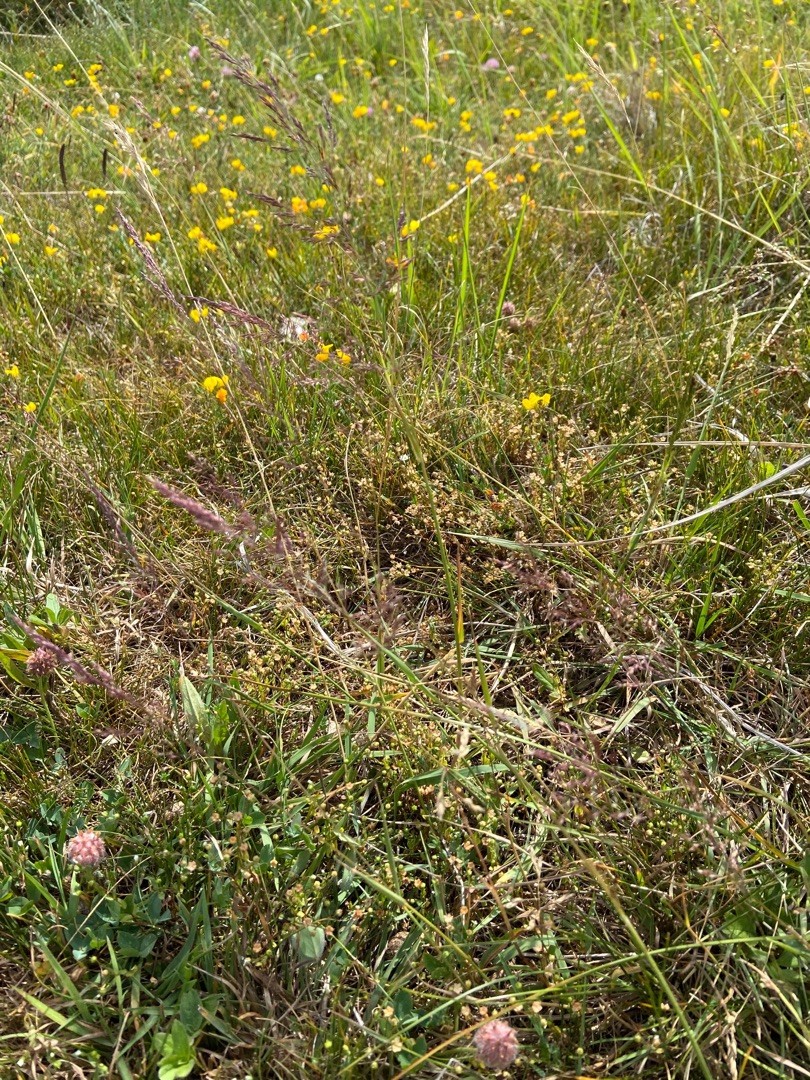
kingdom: Plantae
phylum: Tracheophyta
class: Liliopsida
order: Poales
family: Poaceae
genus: Agrostis
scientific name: Agrostis gigantea
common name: Stortoppet hvene
